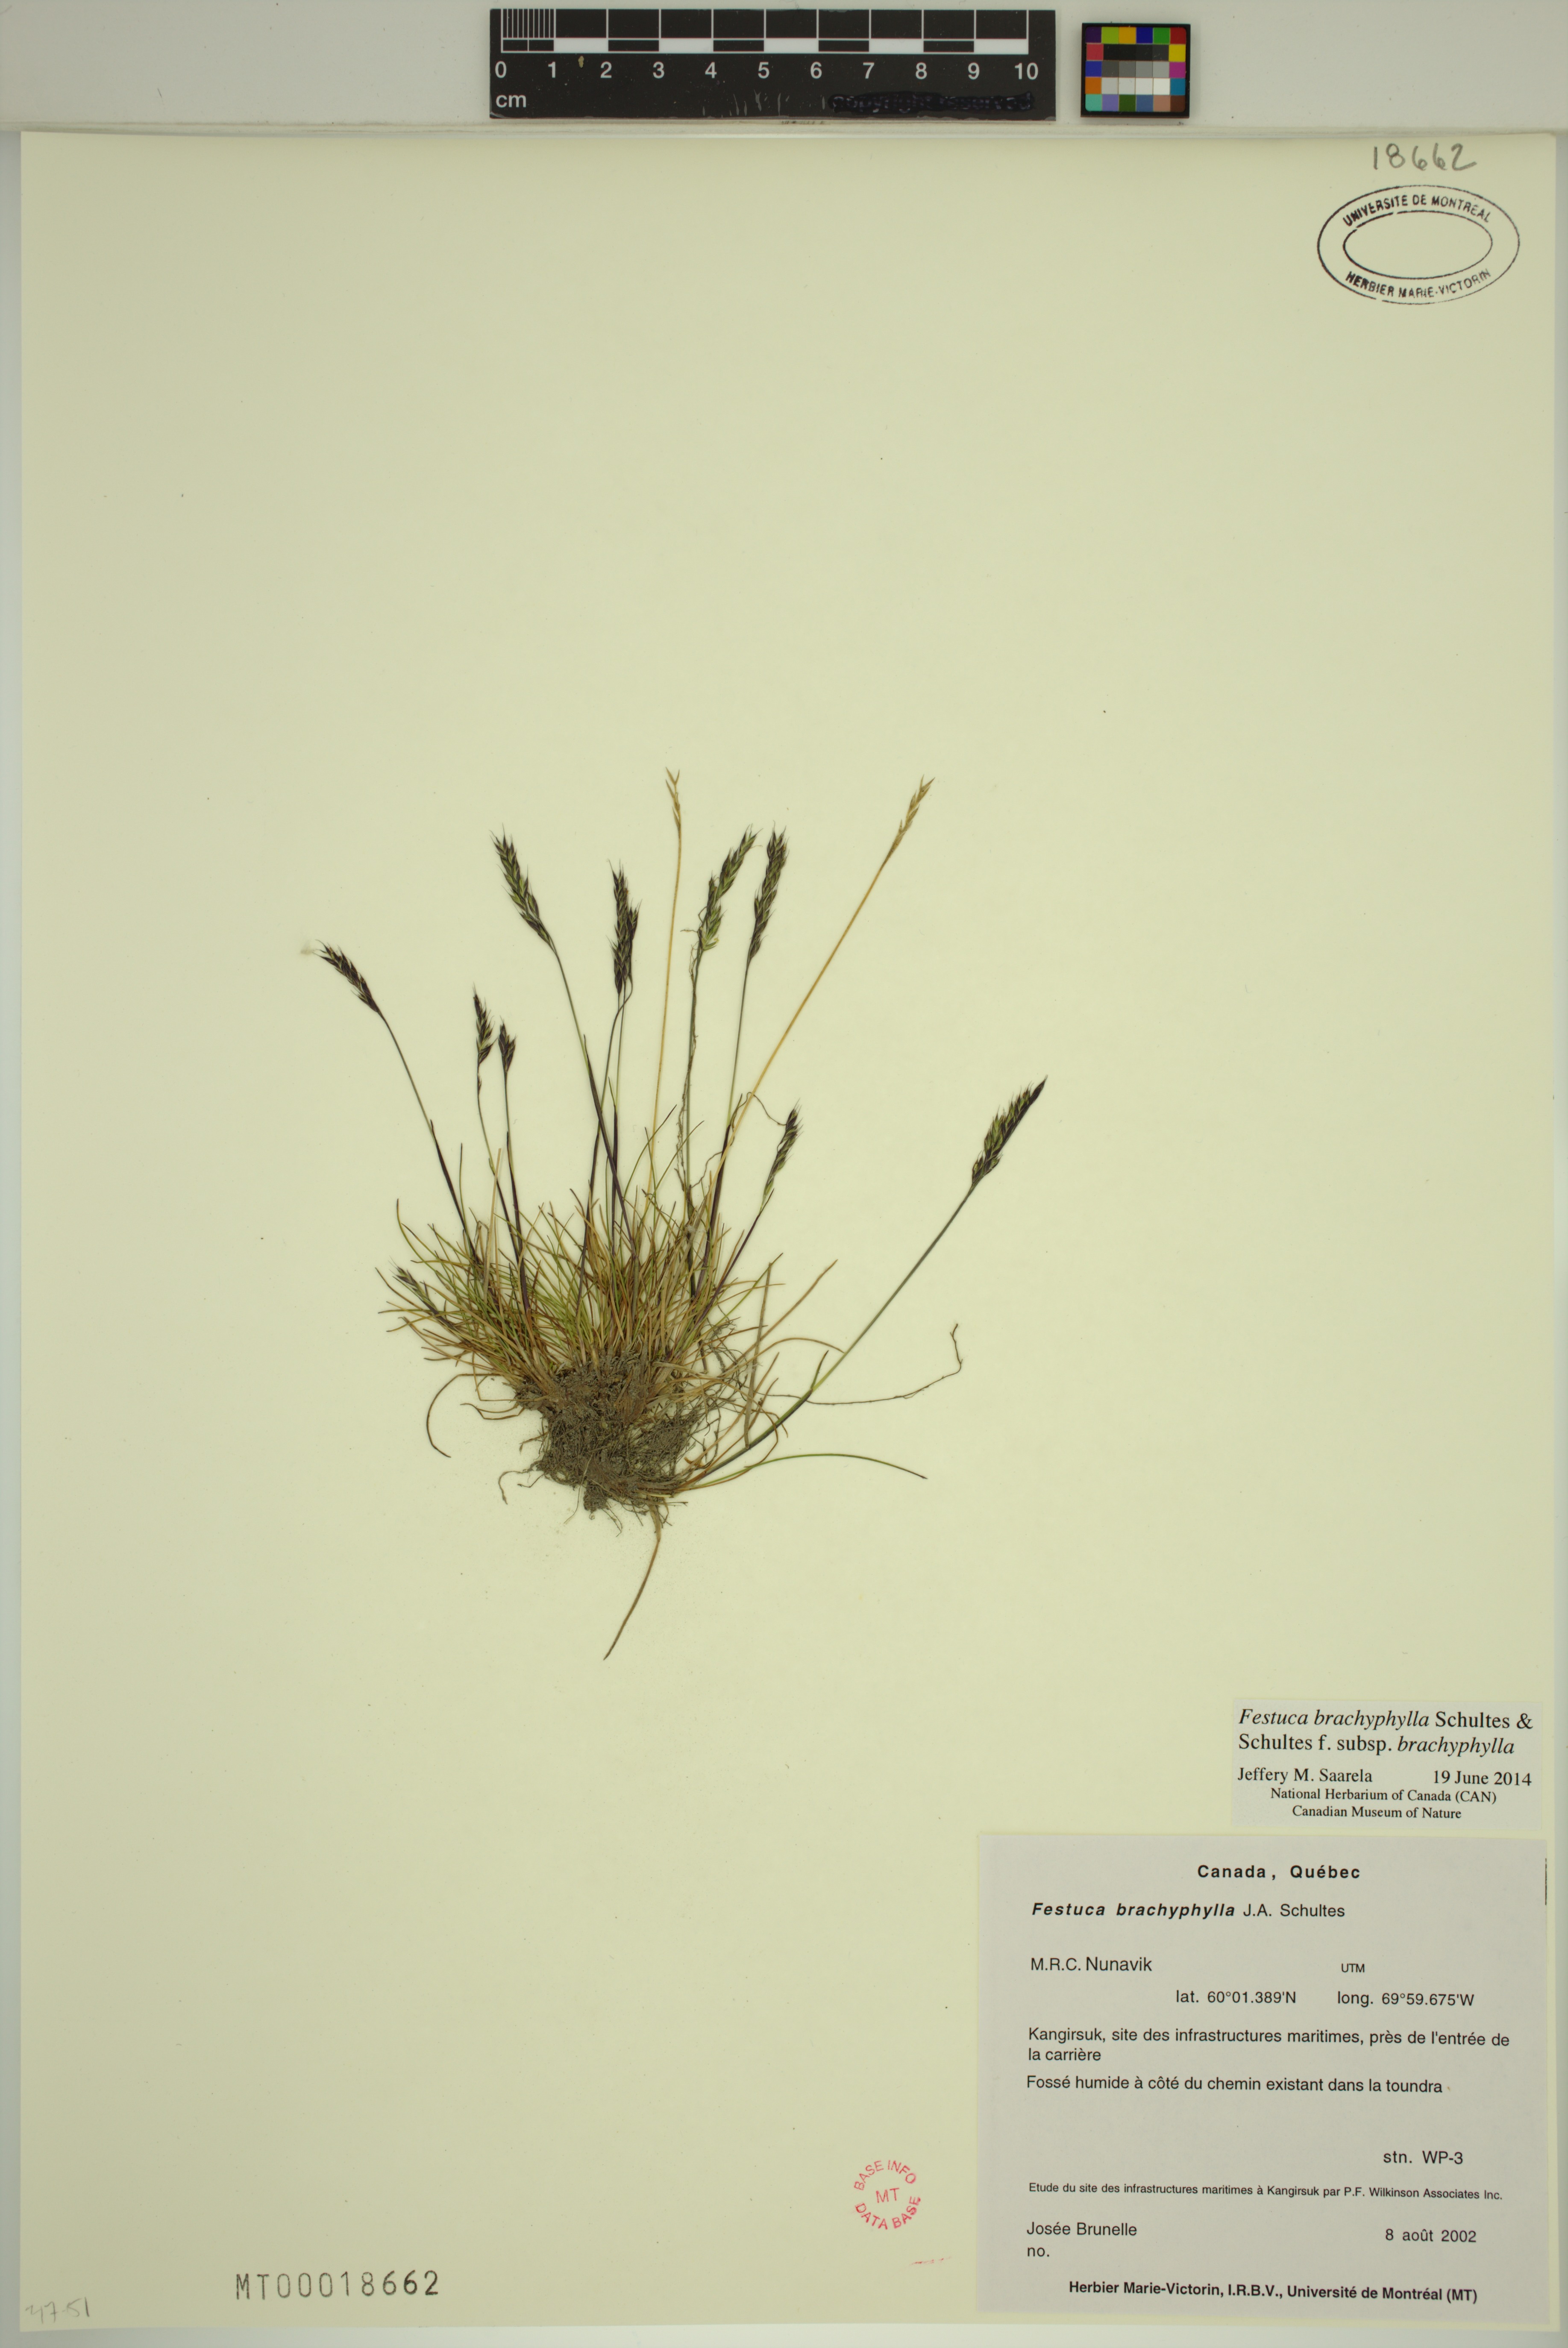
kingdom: Plantae
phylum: Tracheophyta
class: Liliopsida
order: Poales
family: Poaceae
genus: Festuca
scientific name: Festuca brachyphylla
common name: Alpine fescue
